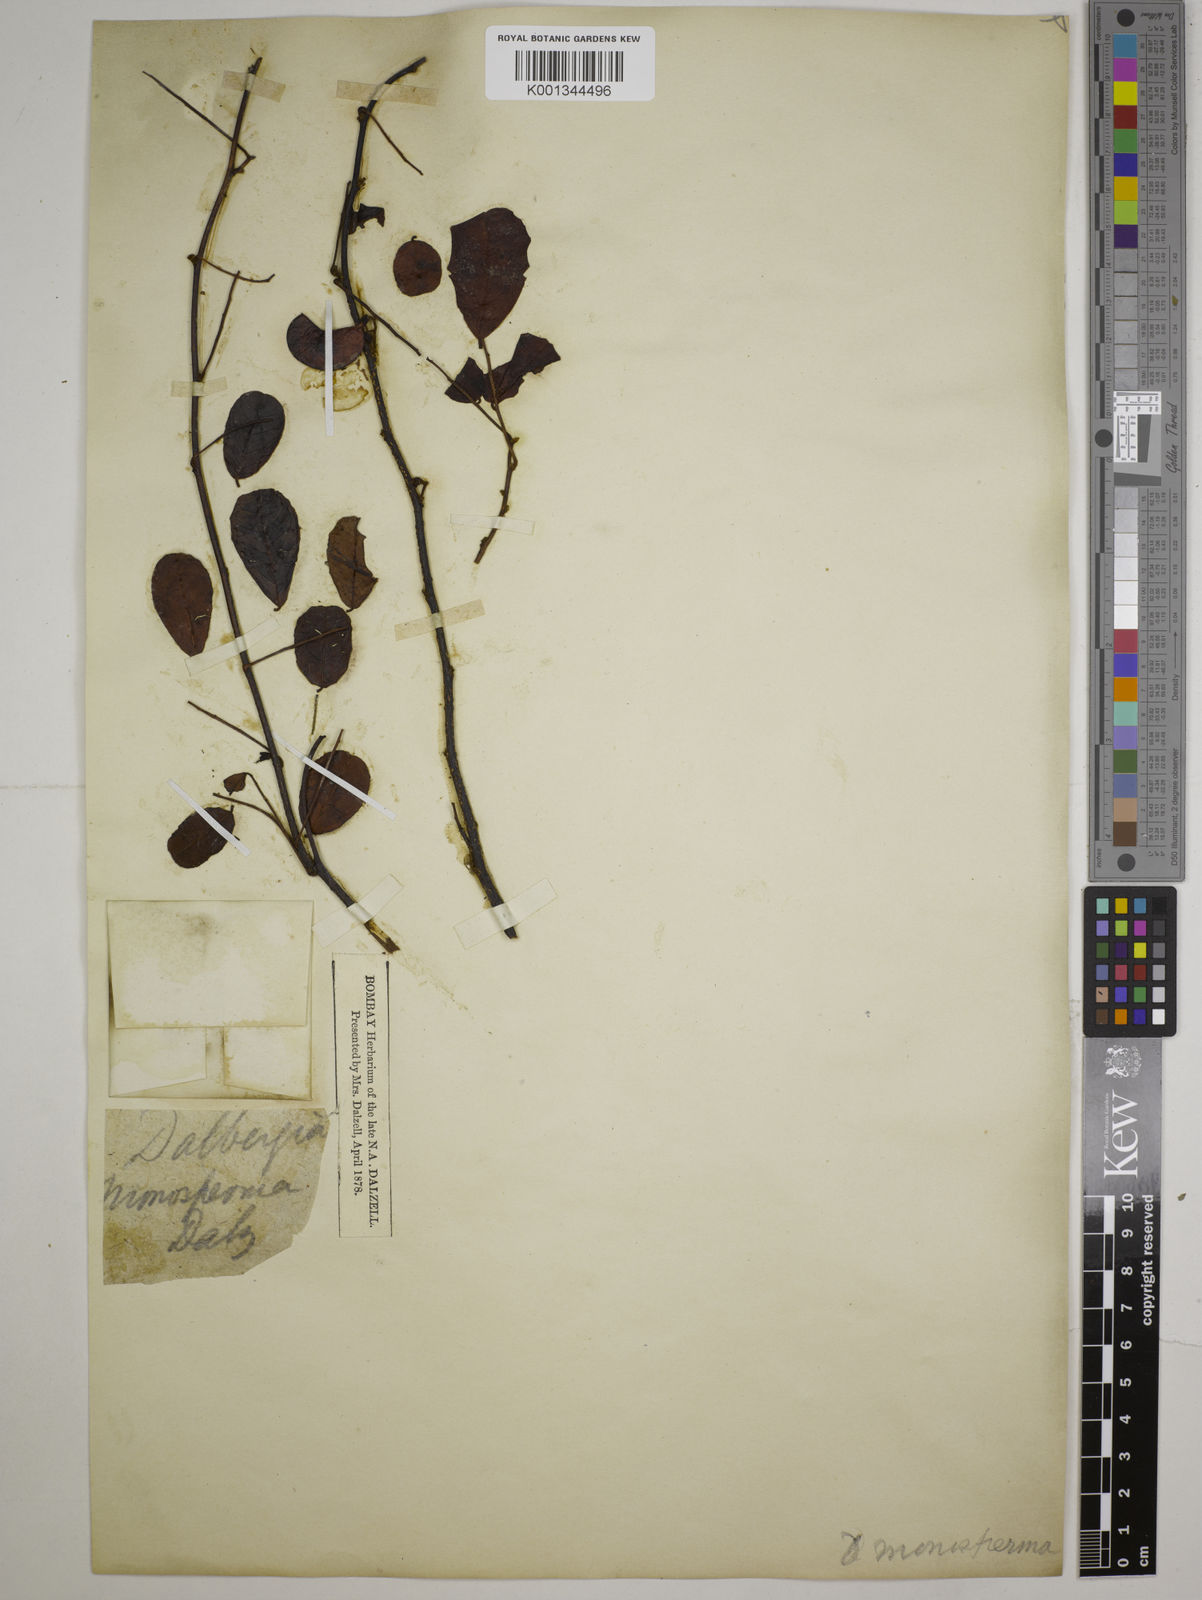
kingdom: Plantae
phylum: Tracheophyta
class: Magnoliopsida
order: Fabales
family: Fabaceae
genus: Dalbergia
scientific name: Dalbergia candenatensis
